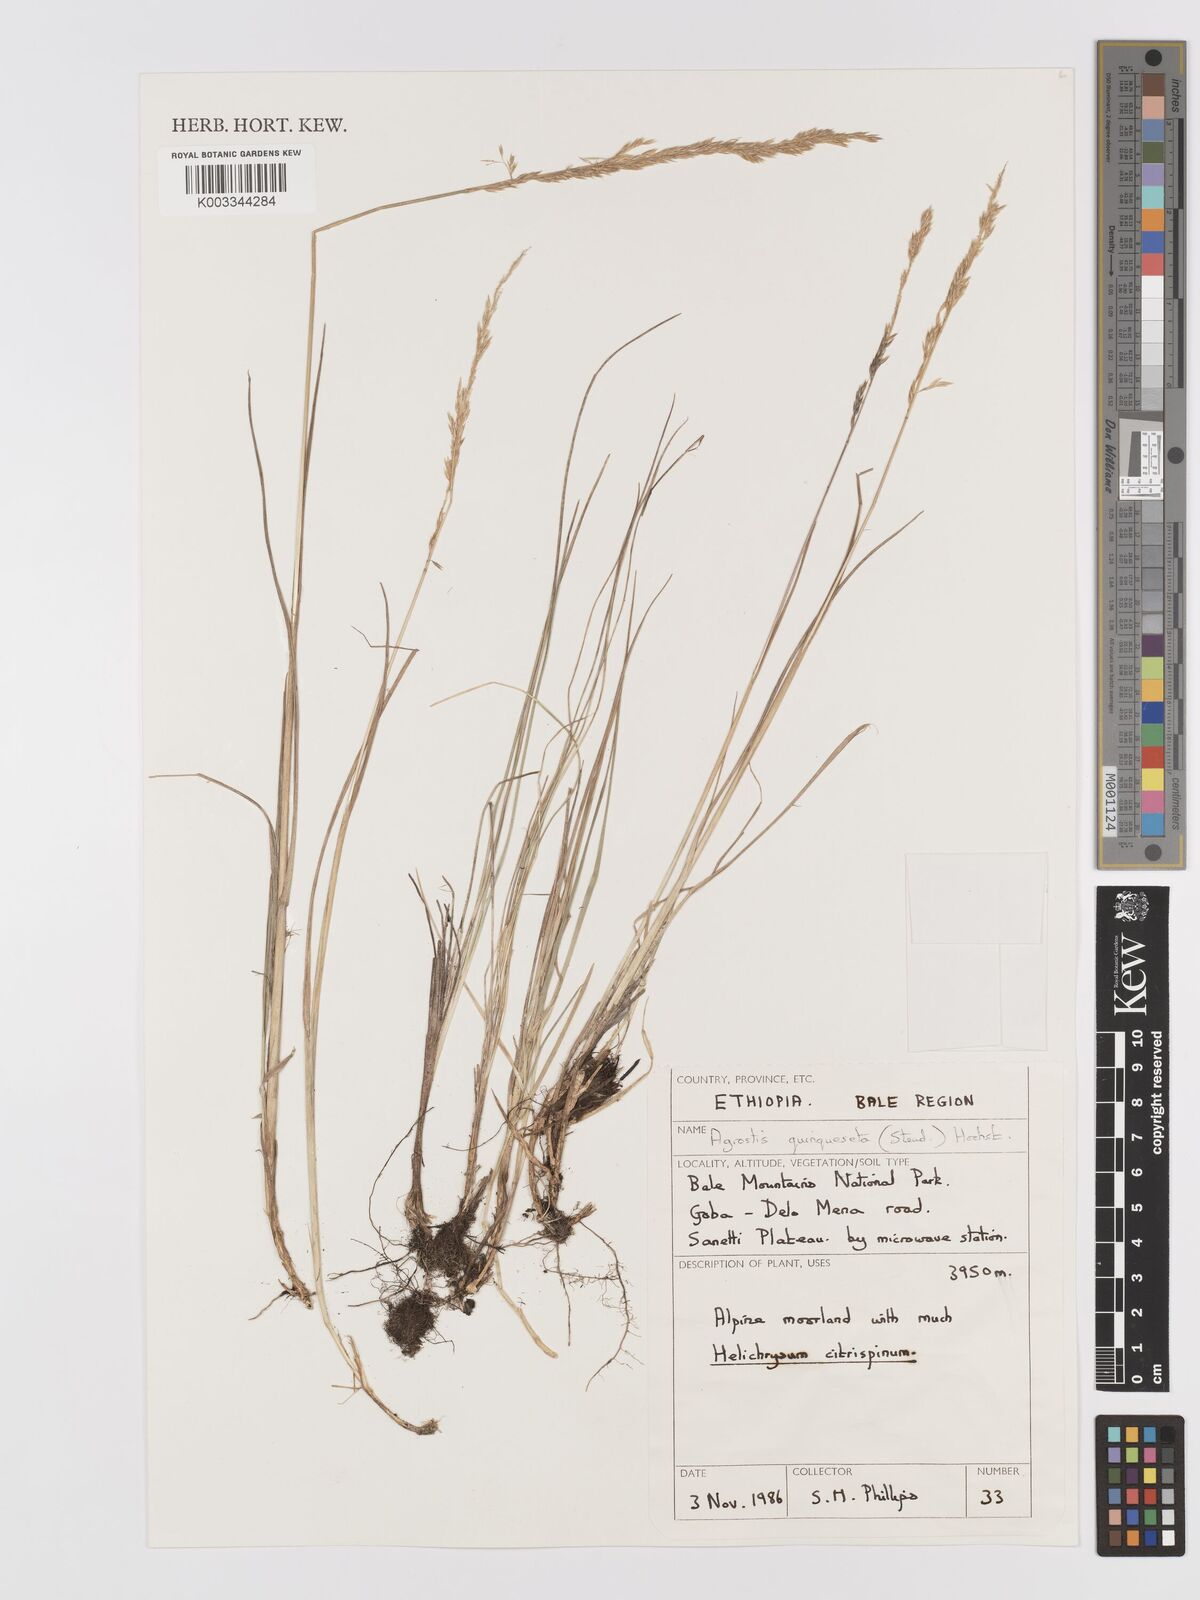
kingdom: Plantae
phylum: Tracheophyta
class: Liliopsida
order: Poales
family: Poaceae
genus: Agrostis
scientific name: Agrostis quinqueseta
